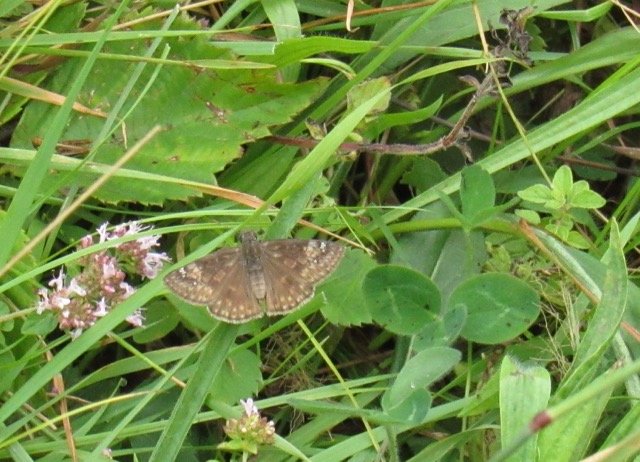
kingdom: Animalia
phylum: Arthropoda
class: Insecta
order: Lepidoptera
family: Hesperiidae
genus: Gesta
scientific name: Gesta
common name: Wild Indigo Duskywing
